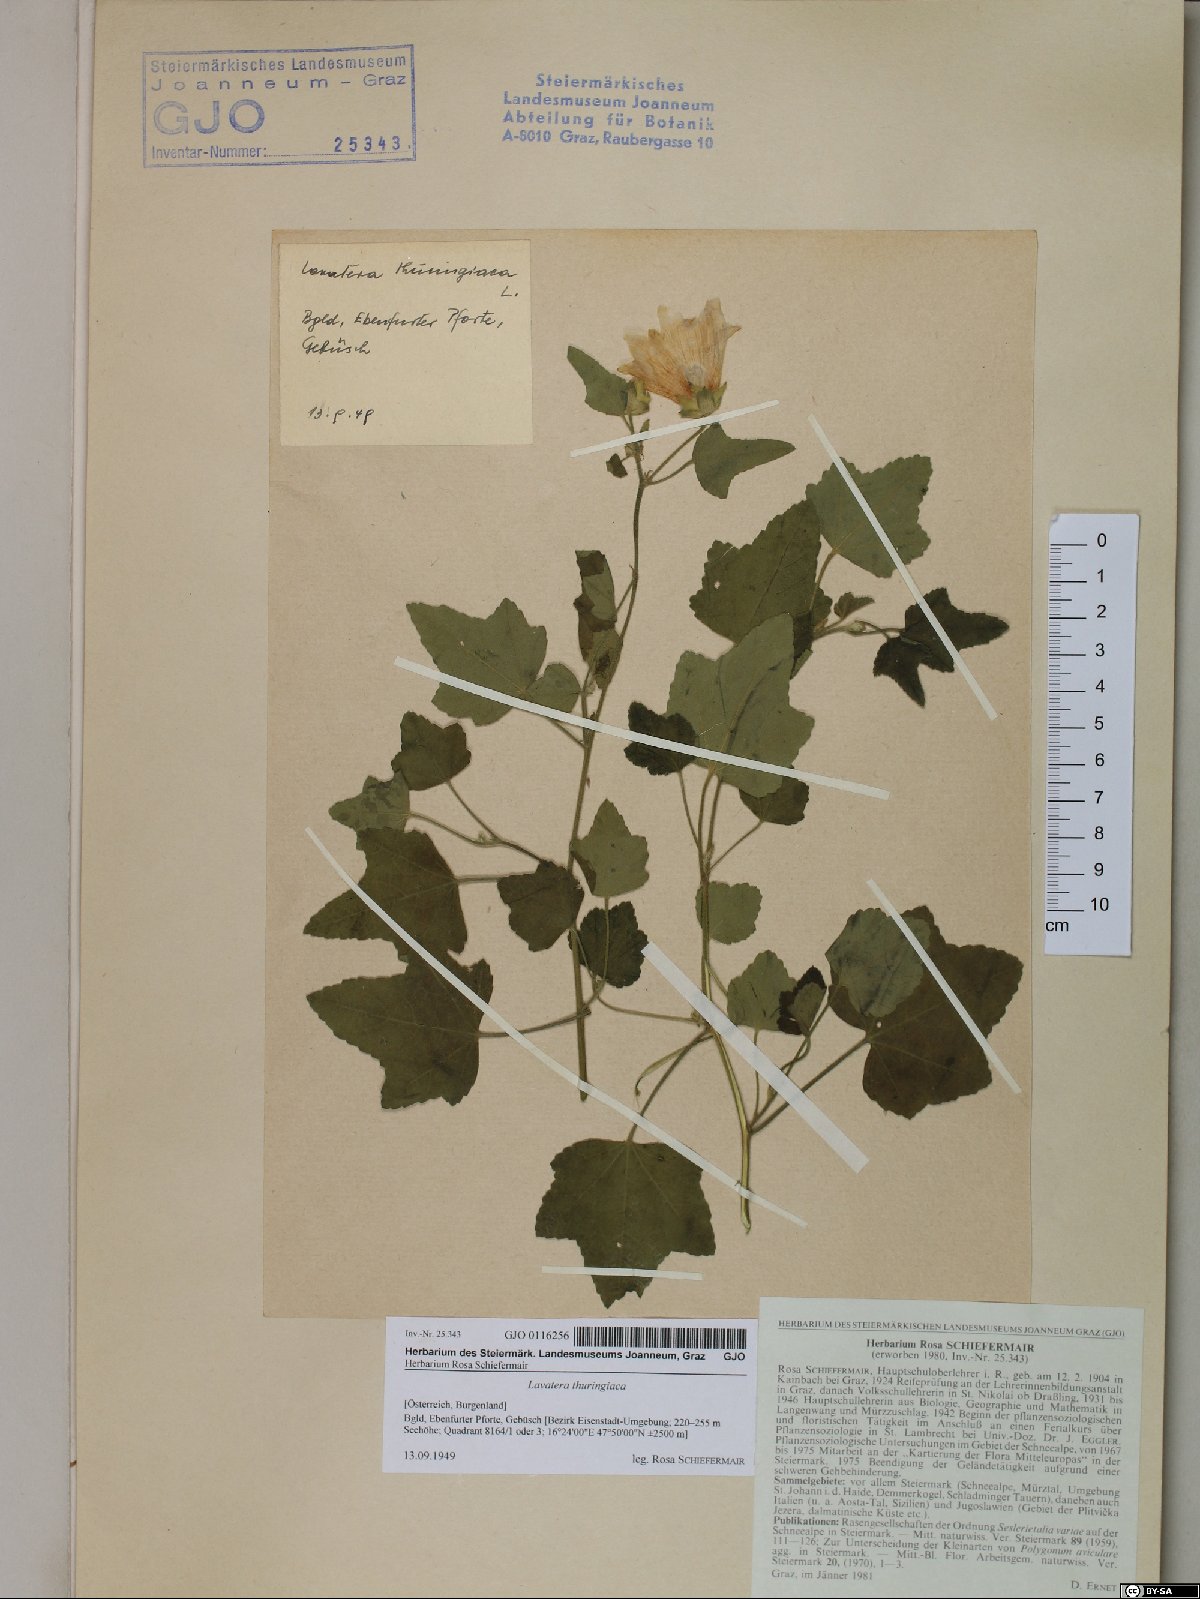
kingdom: Plantae
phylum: Tracheophyta
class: Magnoliopsida
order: Malvales
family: Malvaceae
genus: Malva
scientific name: Malva thuringiaca
